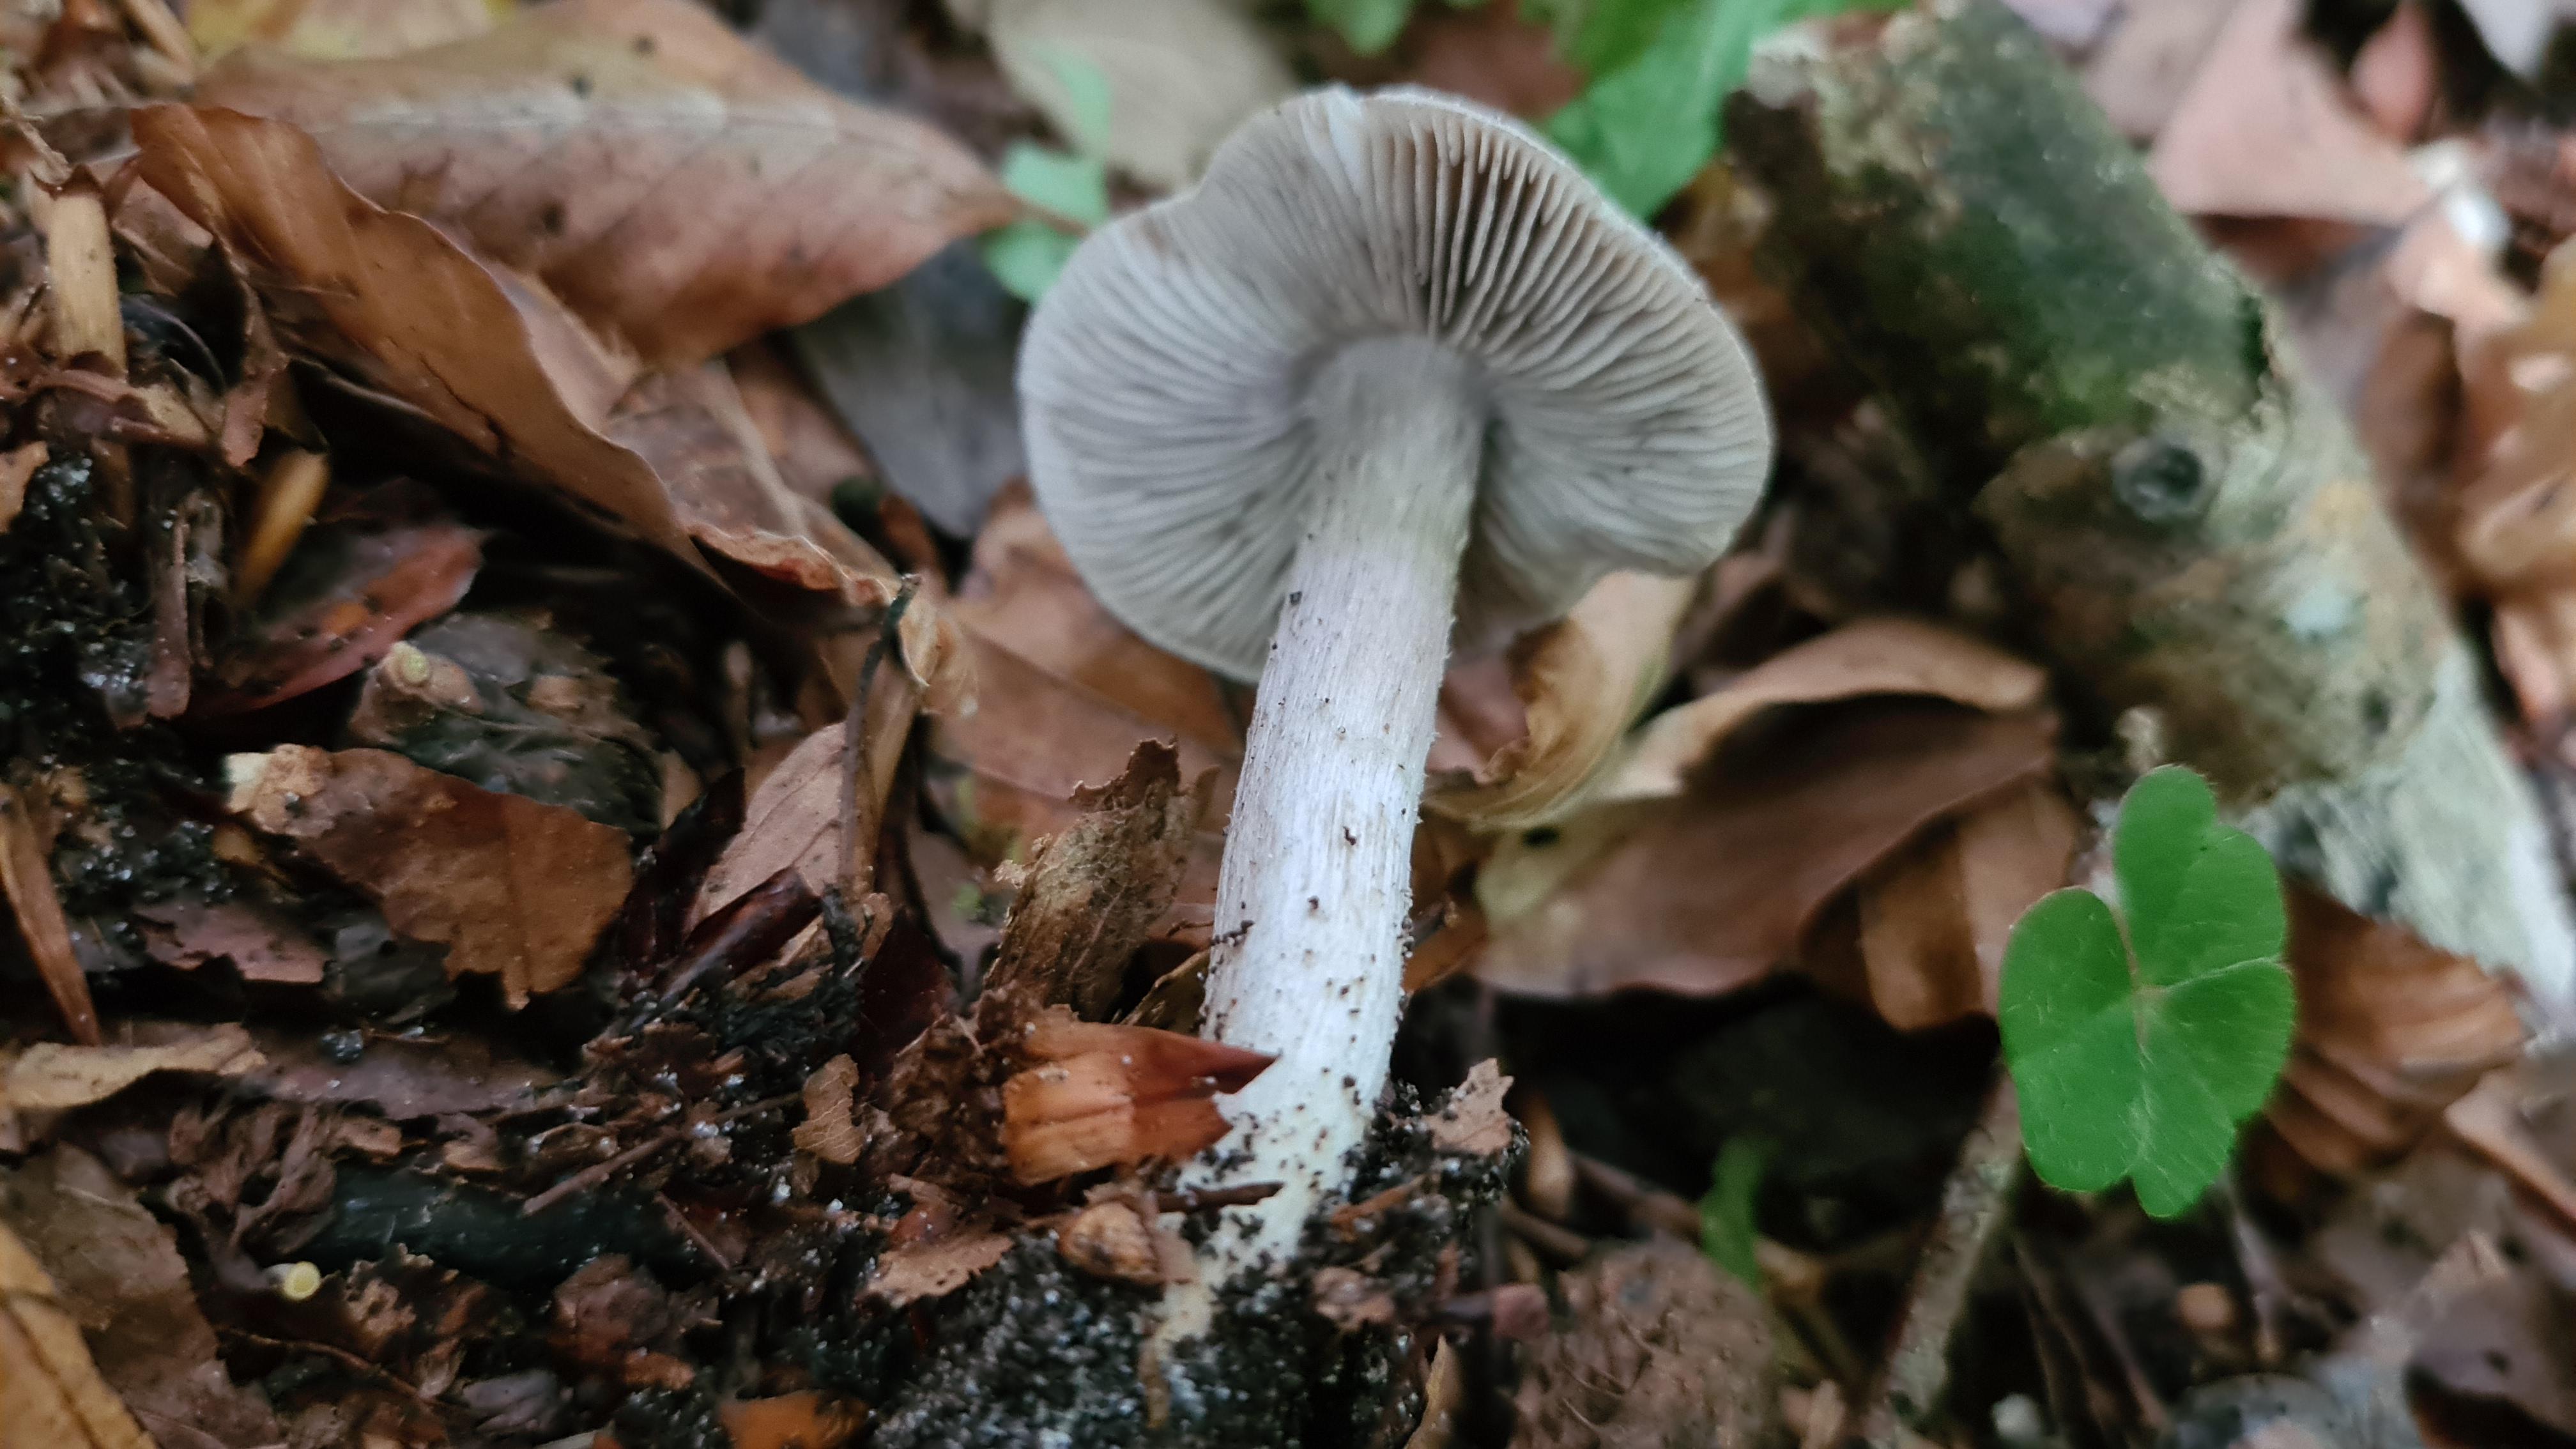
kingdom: Fungi
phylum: Basidiomycota
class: Agaricomycetes
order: Agaricales
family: Tricholomataceae
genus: Tricholoma
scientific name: Tricholoma sciodes
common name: stribet ridderhat
